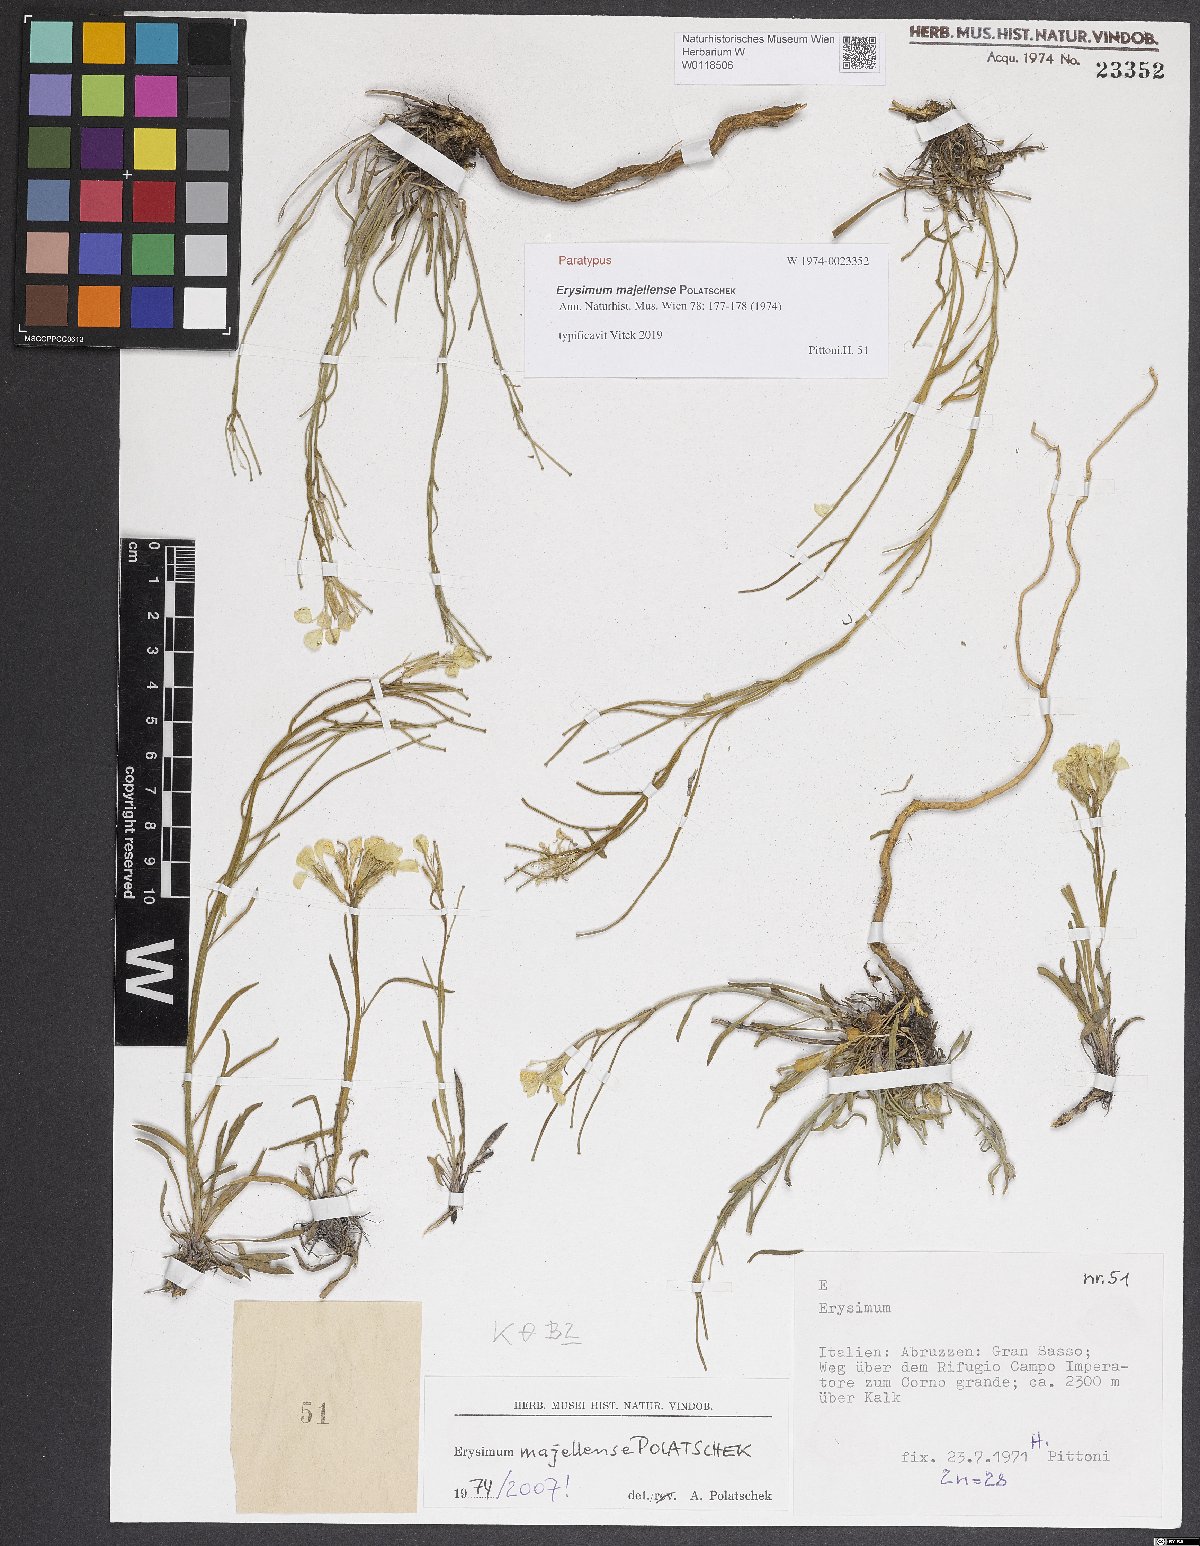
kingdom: Plantae
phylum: Tracheophyta
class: Magnoliopsida
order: Brassicales
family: Brassicaceae
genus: Erysimum
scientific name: Erysimum majellense
